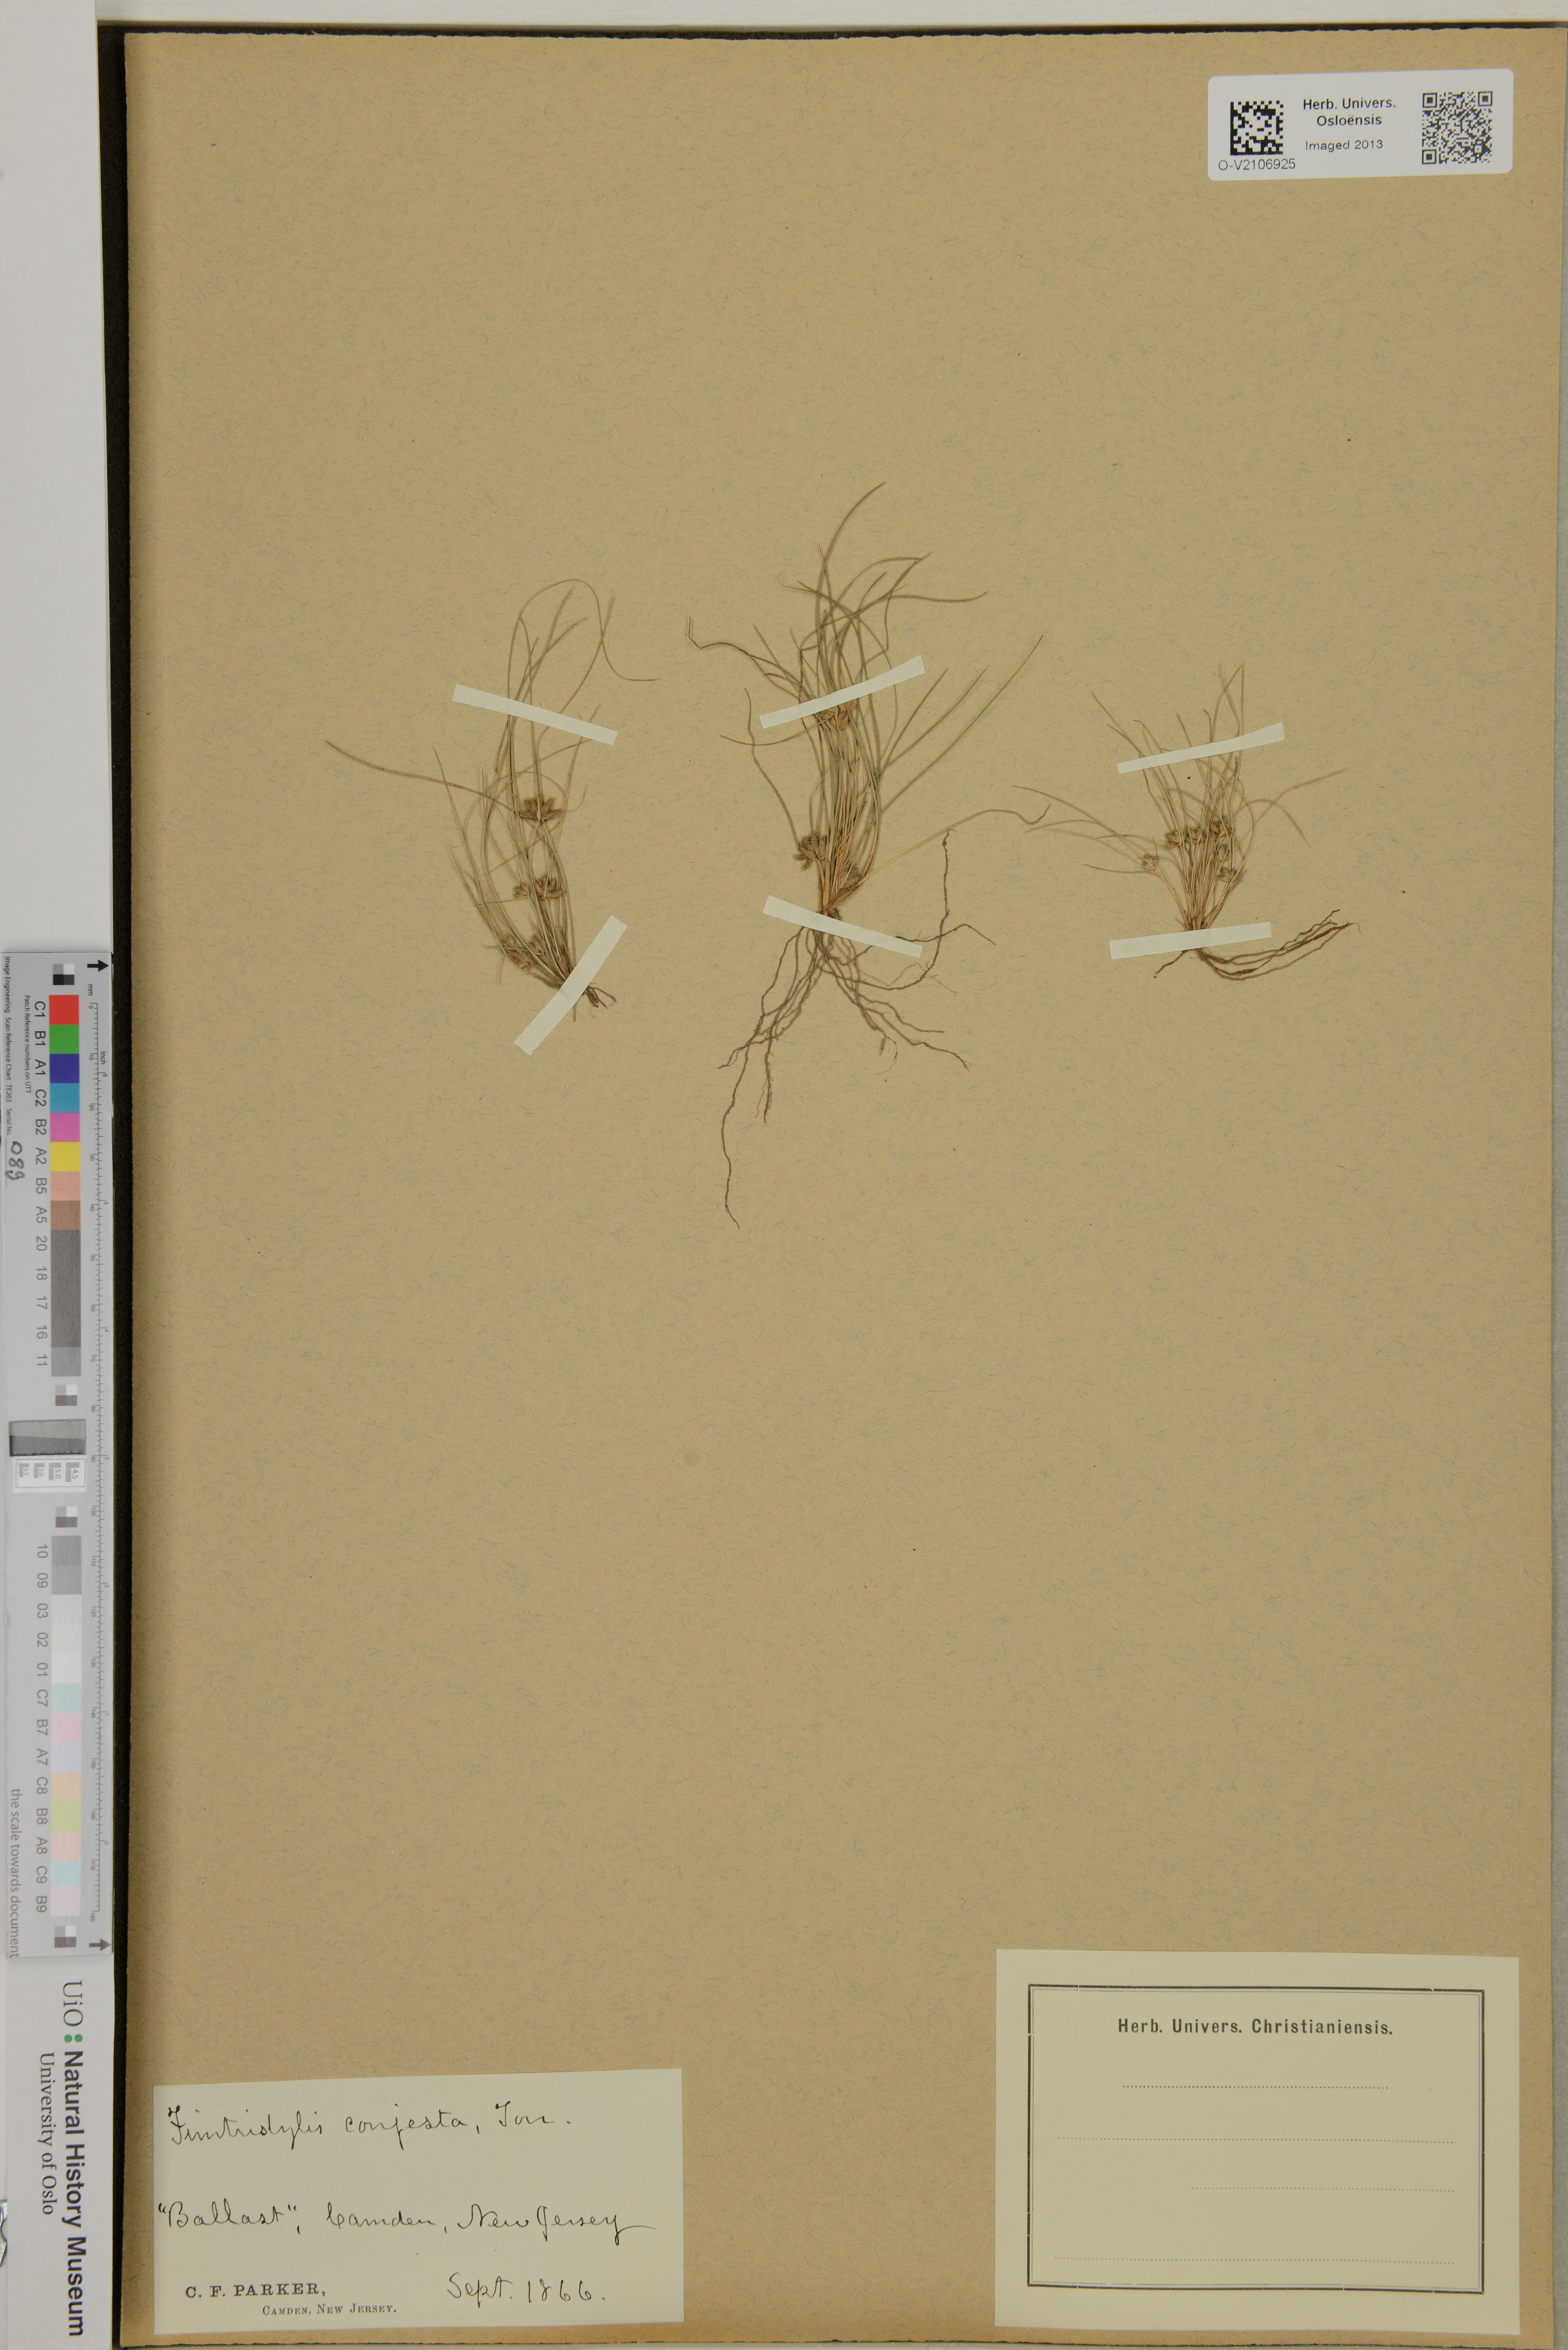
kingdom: Plantae
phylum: Tracheophyta
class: Liliopsida
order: Poales
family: Cyperaceae
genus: Fimbristylis
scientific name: Fimbristylis vahlii
